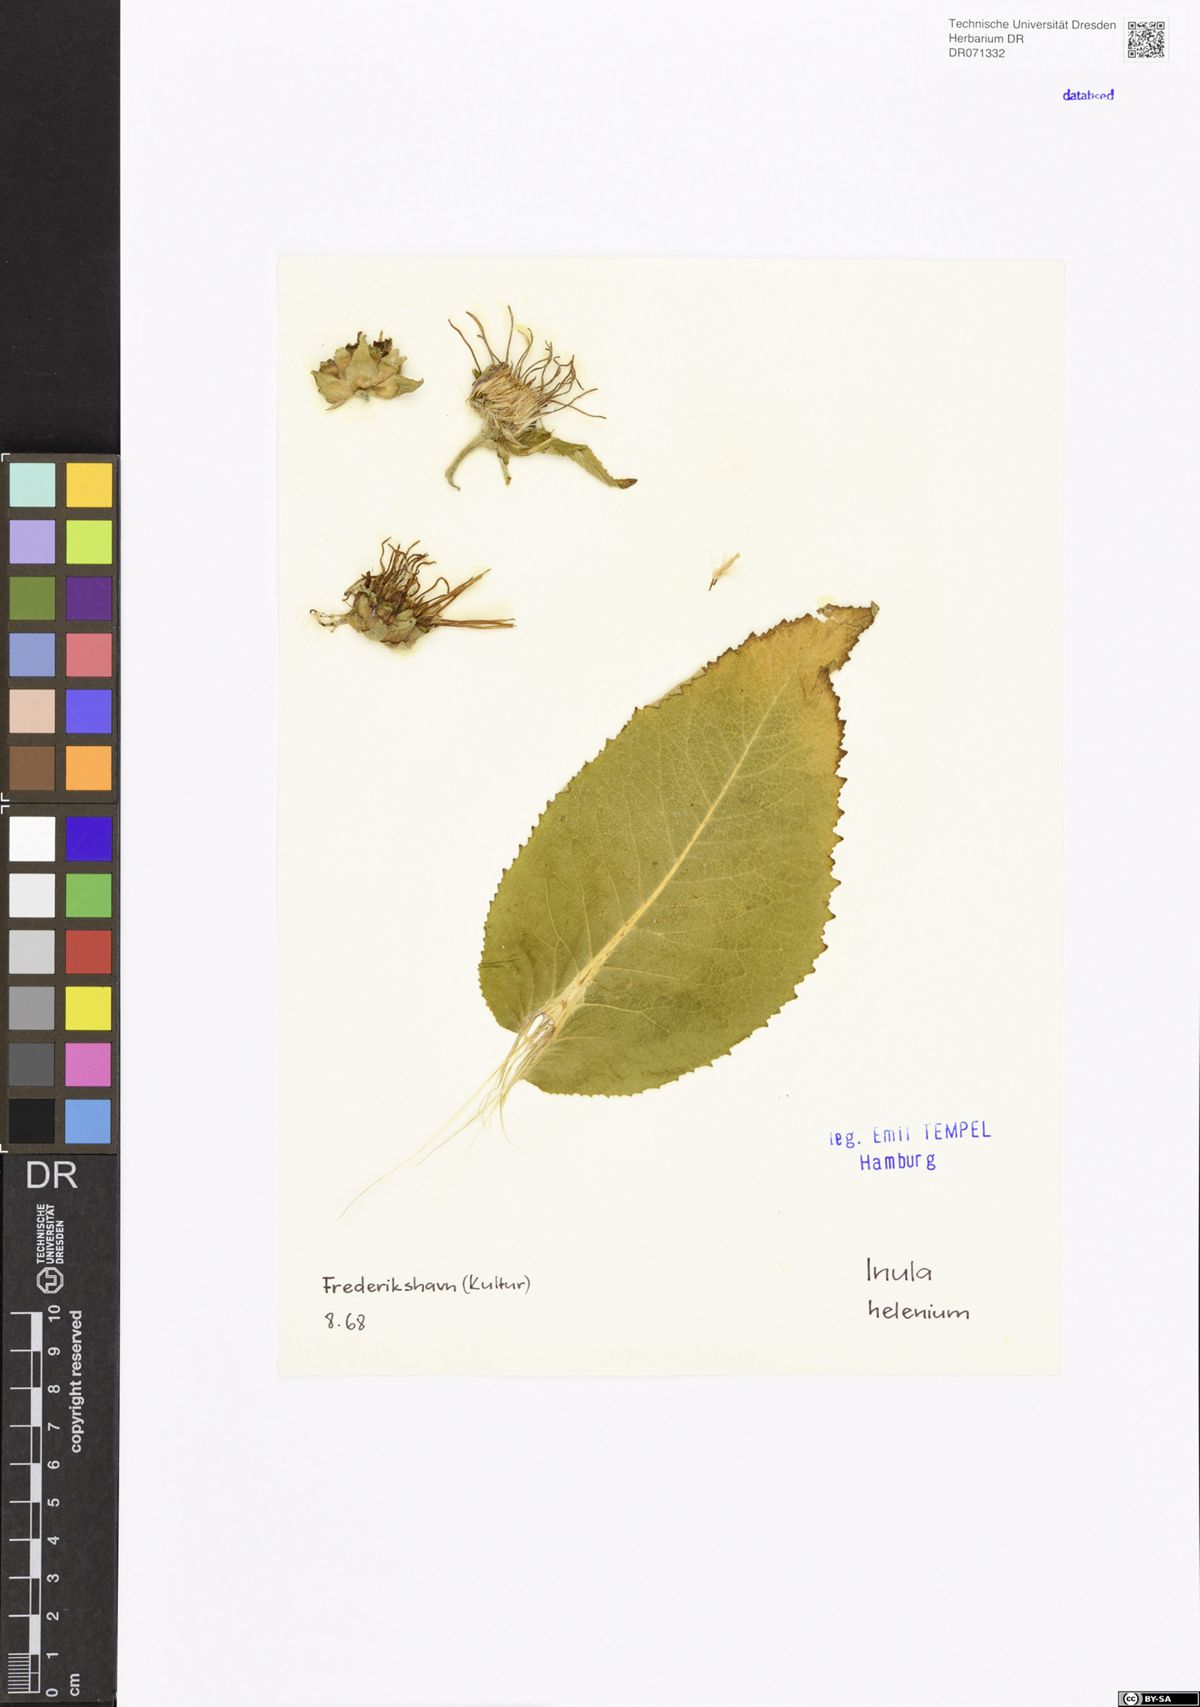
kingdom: Plantae
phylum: Tracheophyta
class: Magnoliopsida
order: Asterales
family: Asteraceae
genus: Inula
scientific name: Inula helenium
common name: Elecampane
